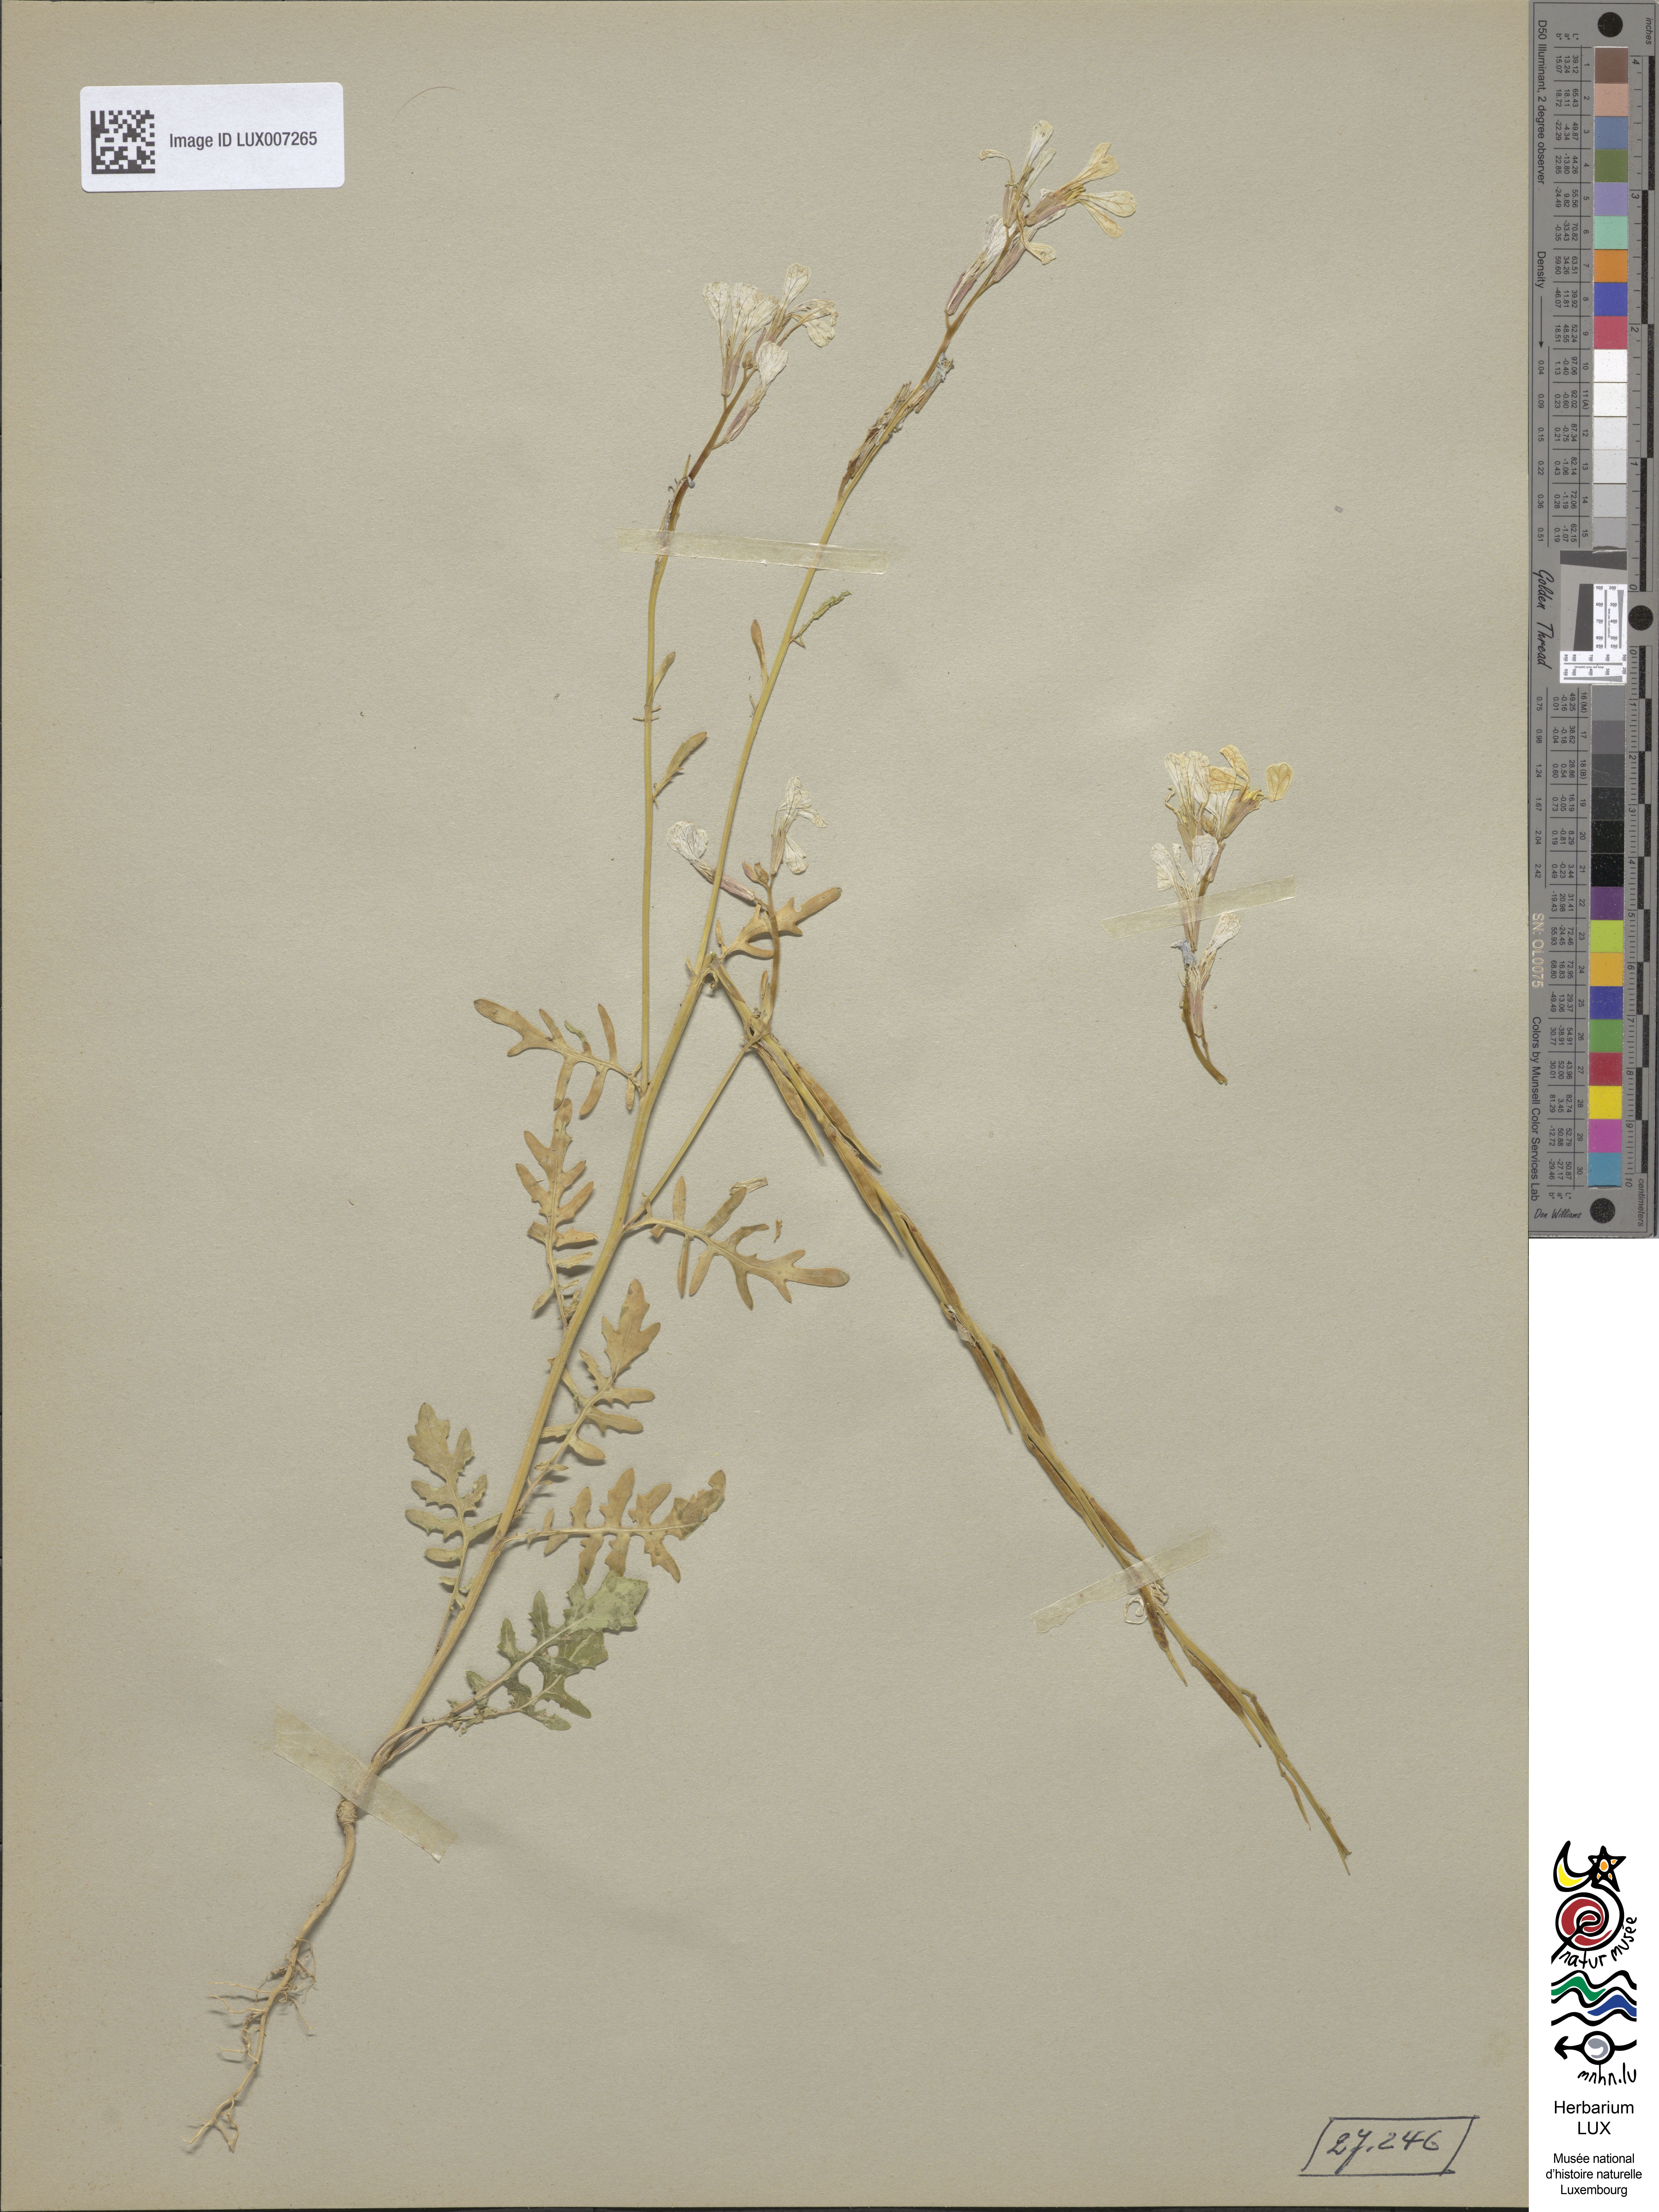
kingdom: Plantae
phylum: Tracheophyta
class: Magnoliopsida
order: Brassicales
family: Brassicaceae
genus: Eruca
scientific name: Eruca vesicaria
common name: Garden rocket
